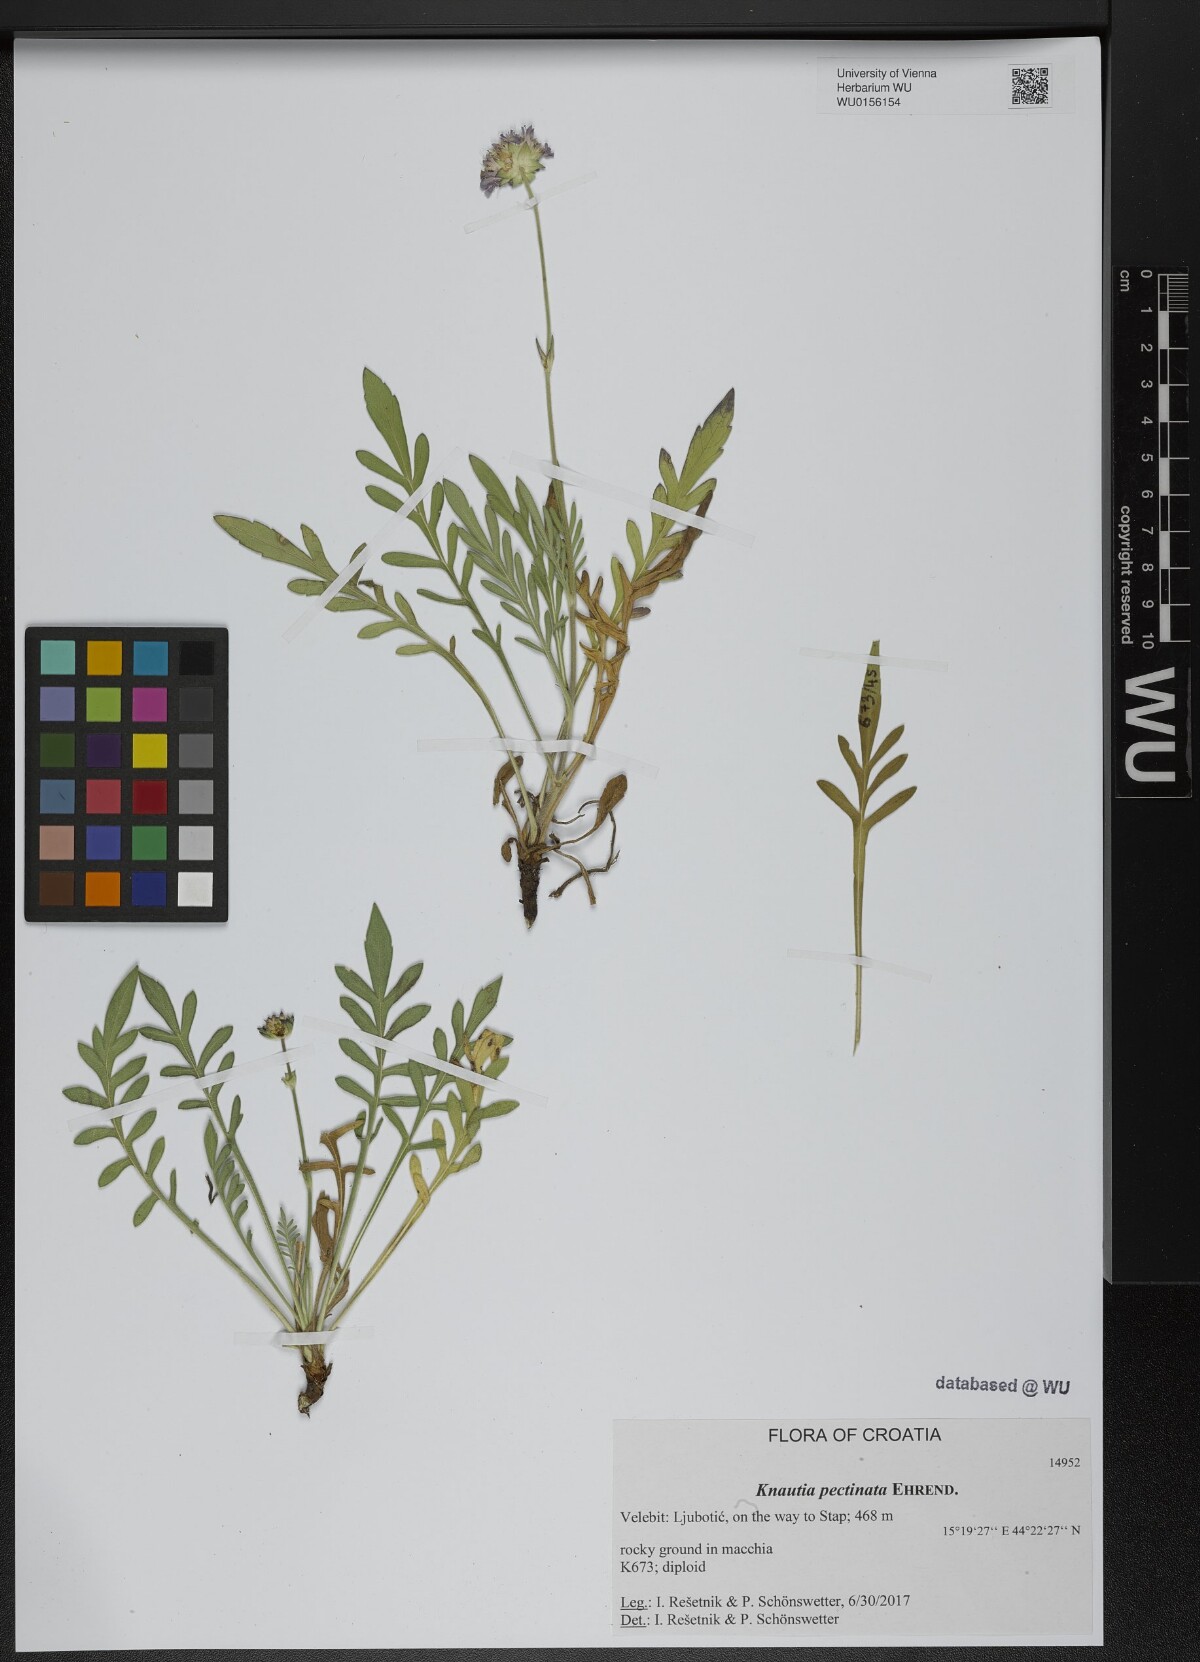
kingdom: Plantae
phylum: Tracheophyta
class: Magnoliopsida
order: Dipsacales
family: Caprifoliaceae
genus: Knautia
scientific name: Knautia pectinata
